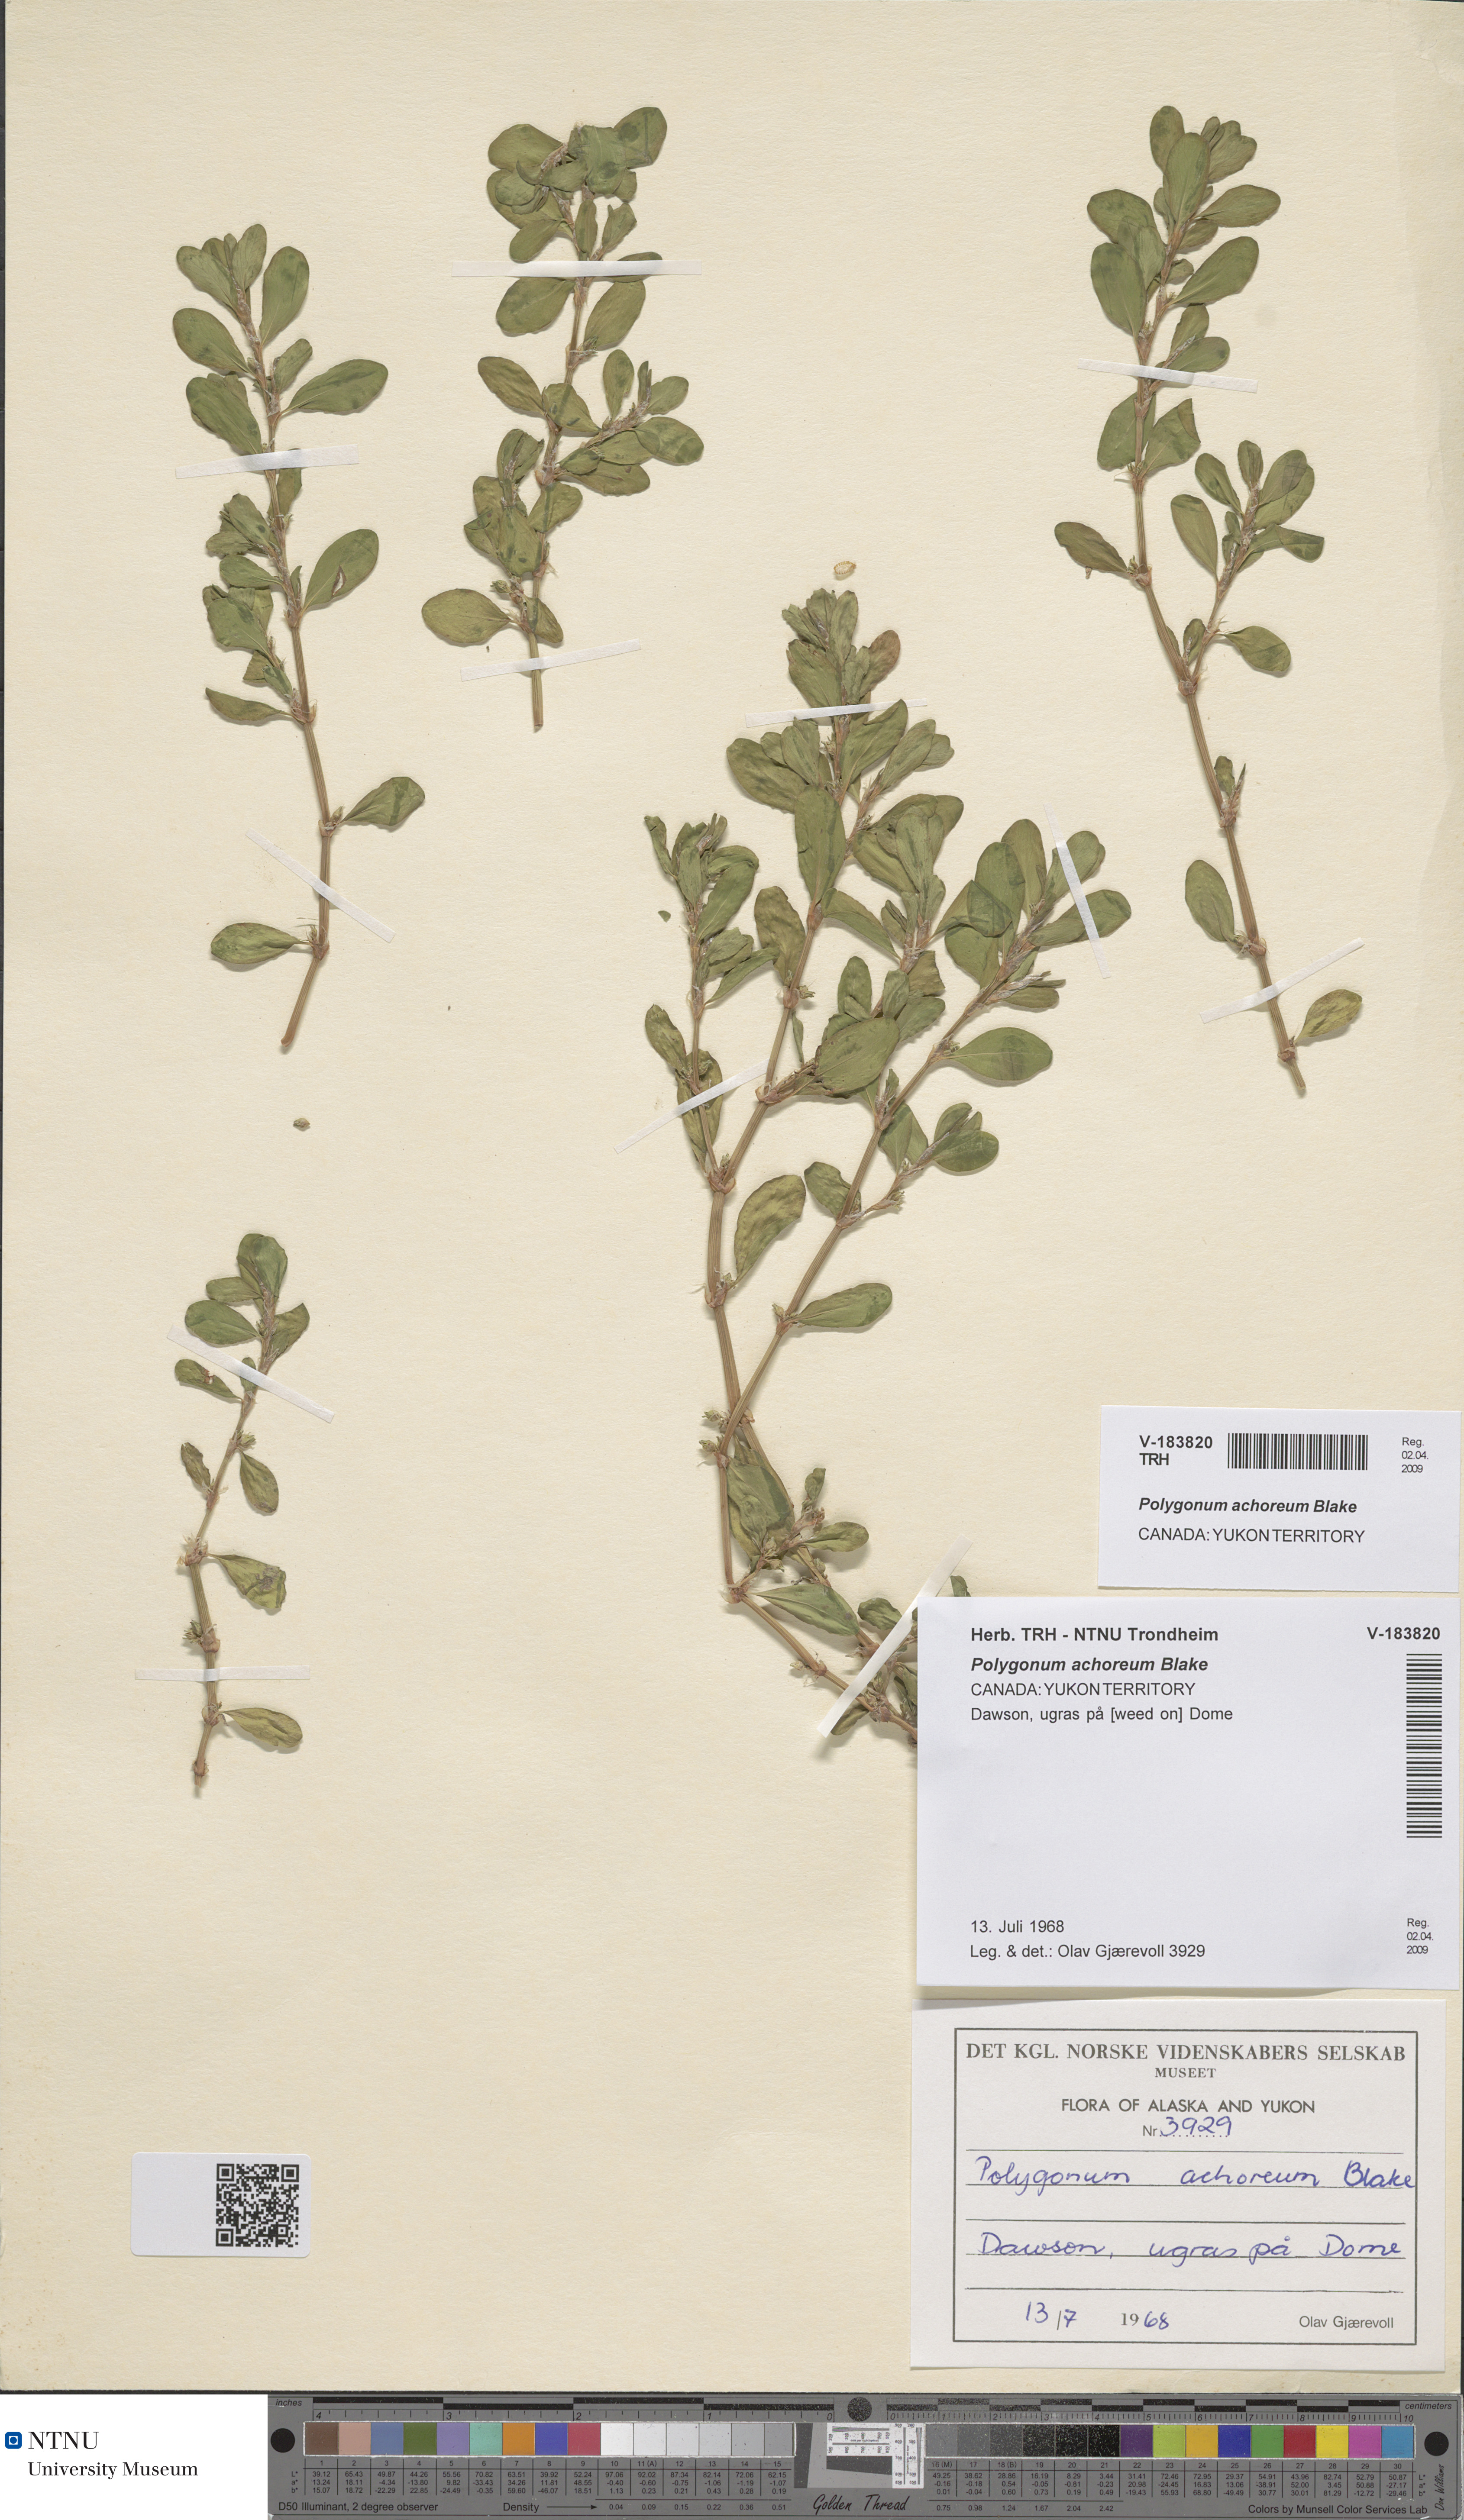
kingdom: Plantae
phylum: Tracheophyta
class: Magnoliopsida
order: Caryophyllales
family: Polygonaceae
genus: Polygonum
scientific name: Polygonum achoreum
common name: Striate knotweed
